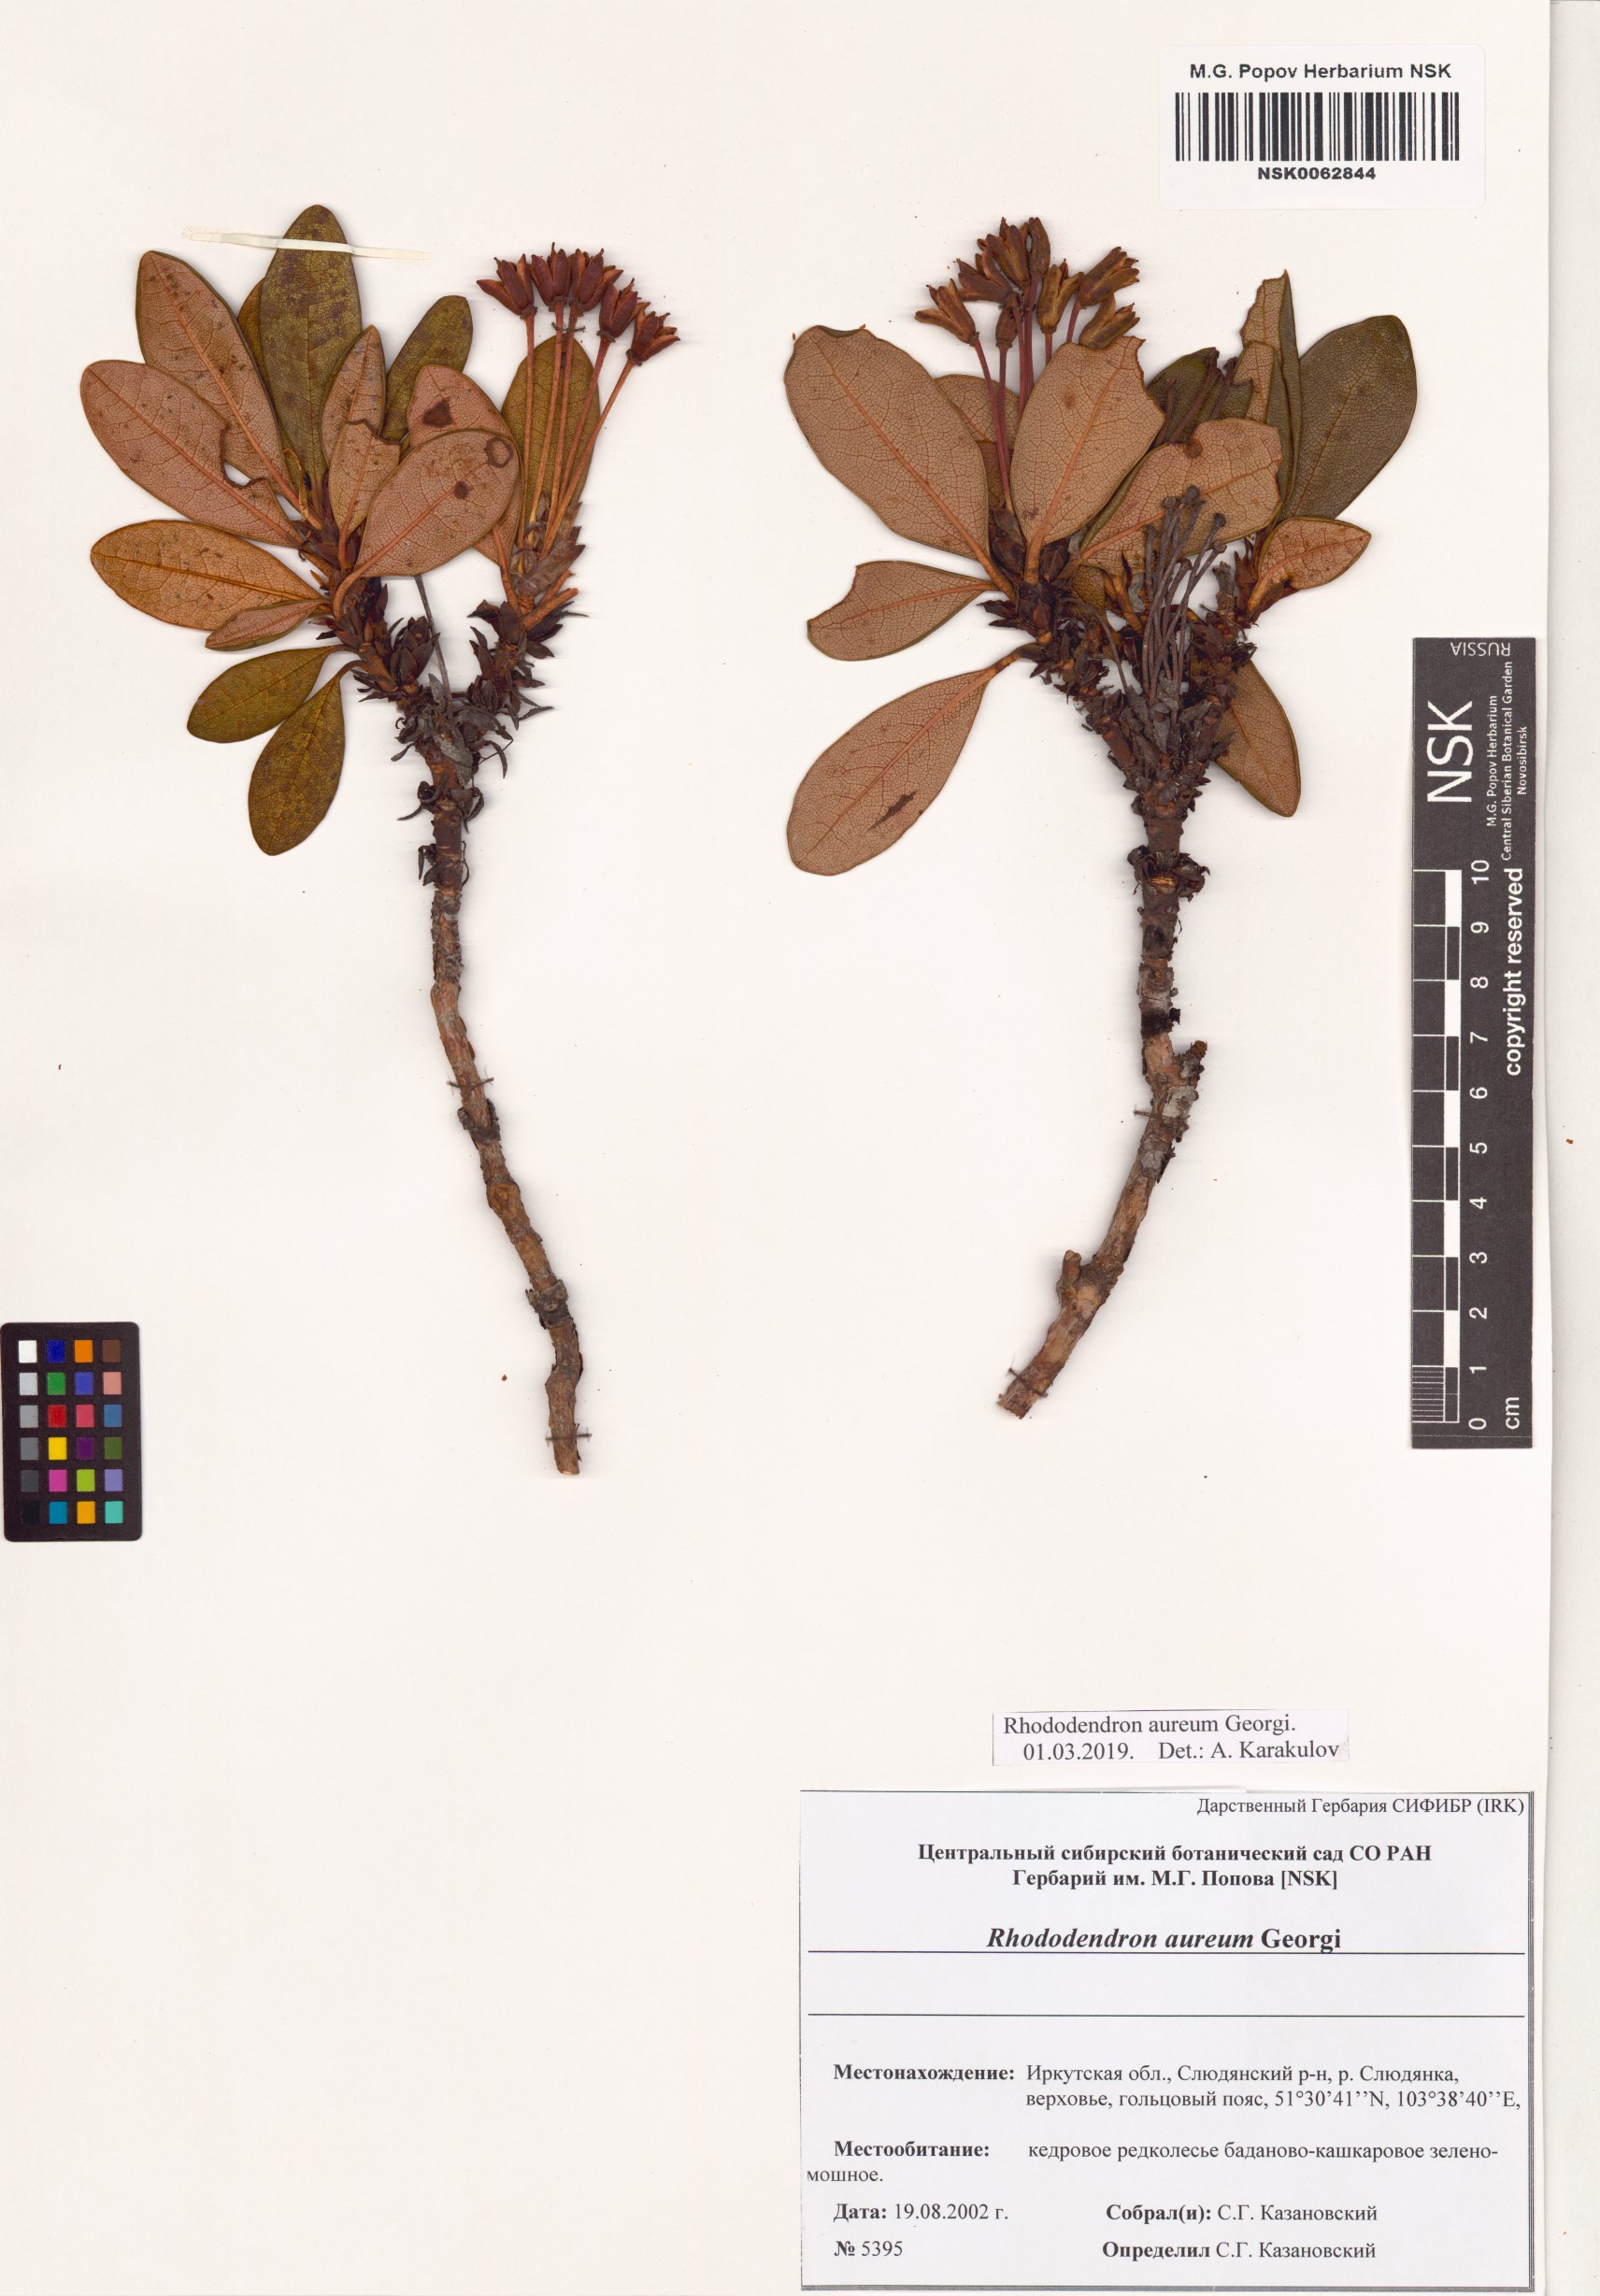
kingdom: Plantae
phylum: Tracheophyta
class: Magnoliopsida
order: Ericales
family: Ericaceae
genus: Rhododendron
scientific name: Rhododendron aureum
